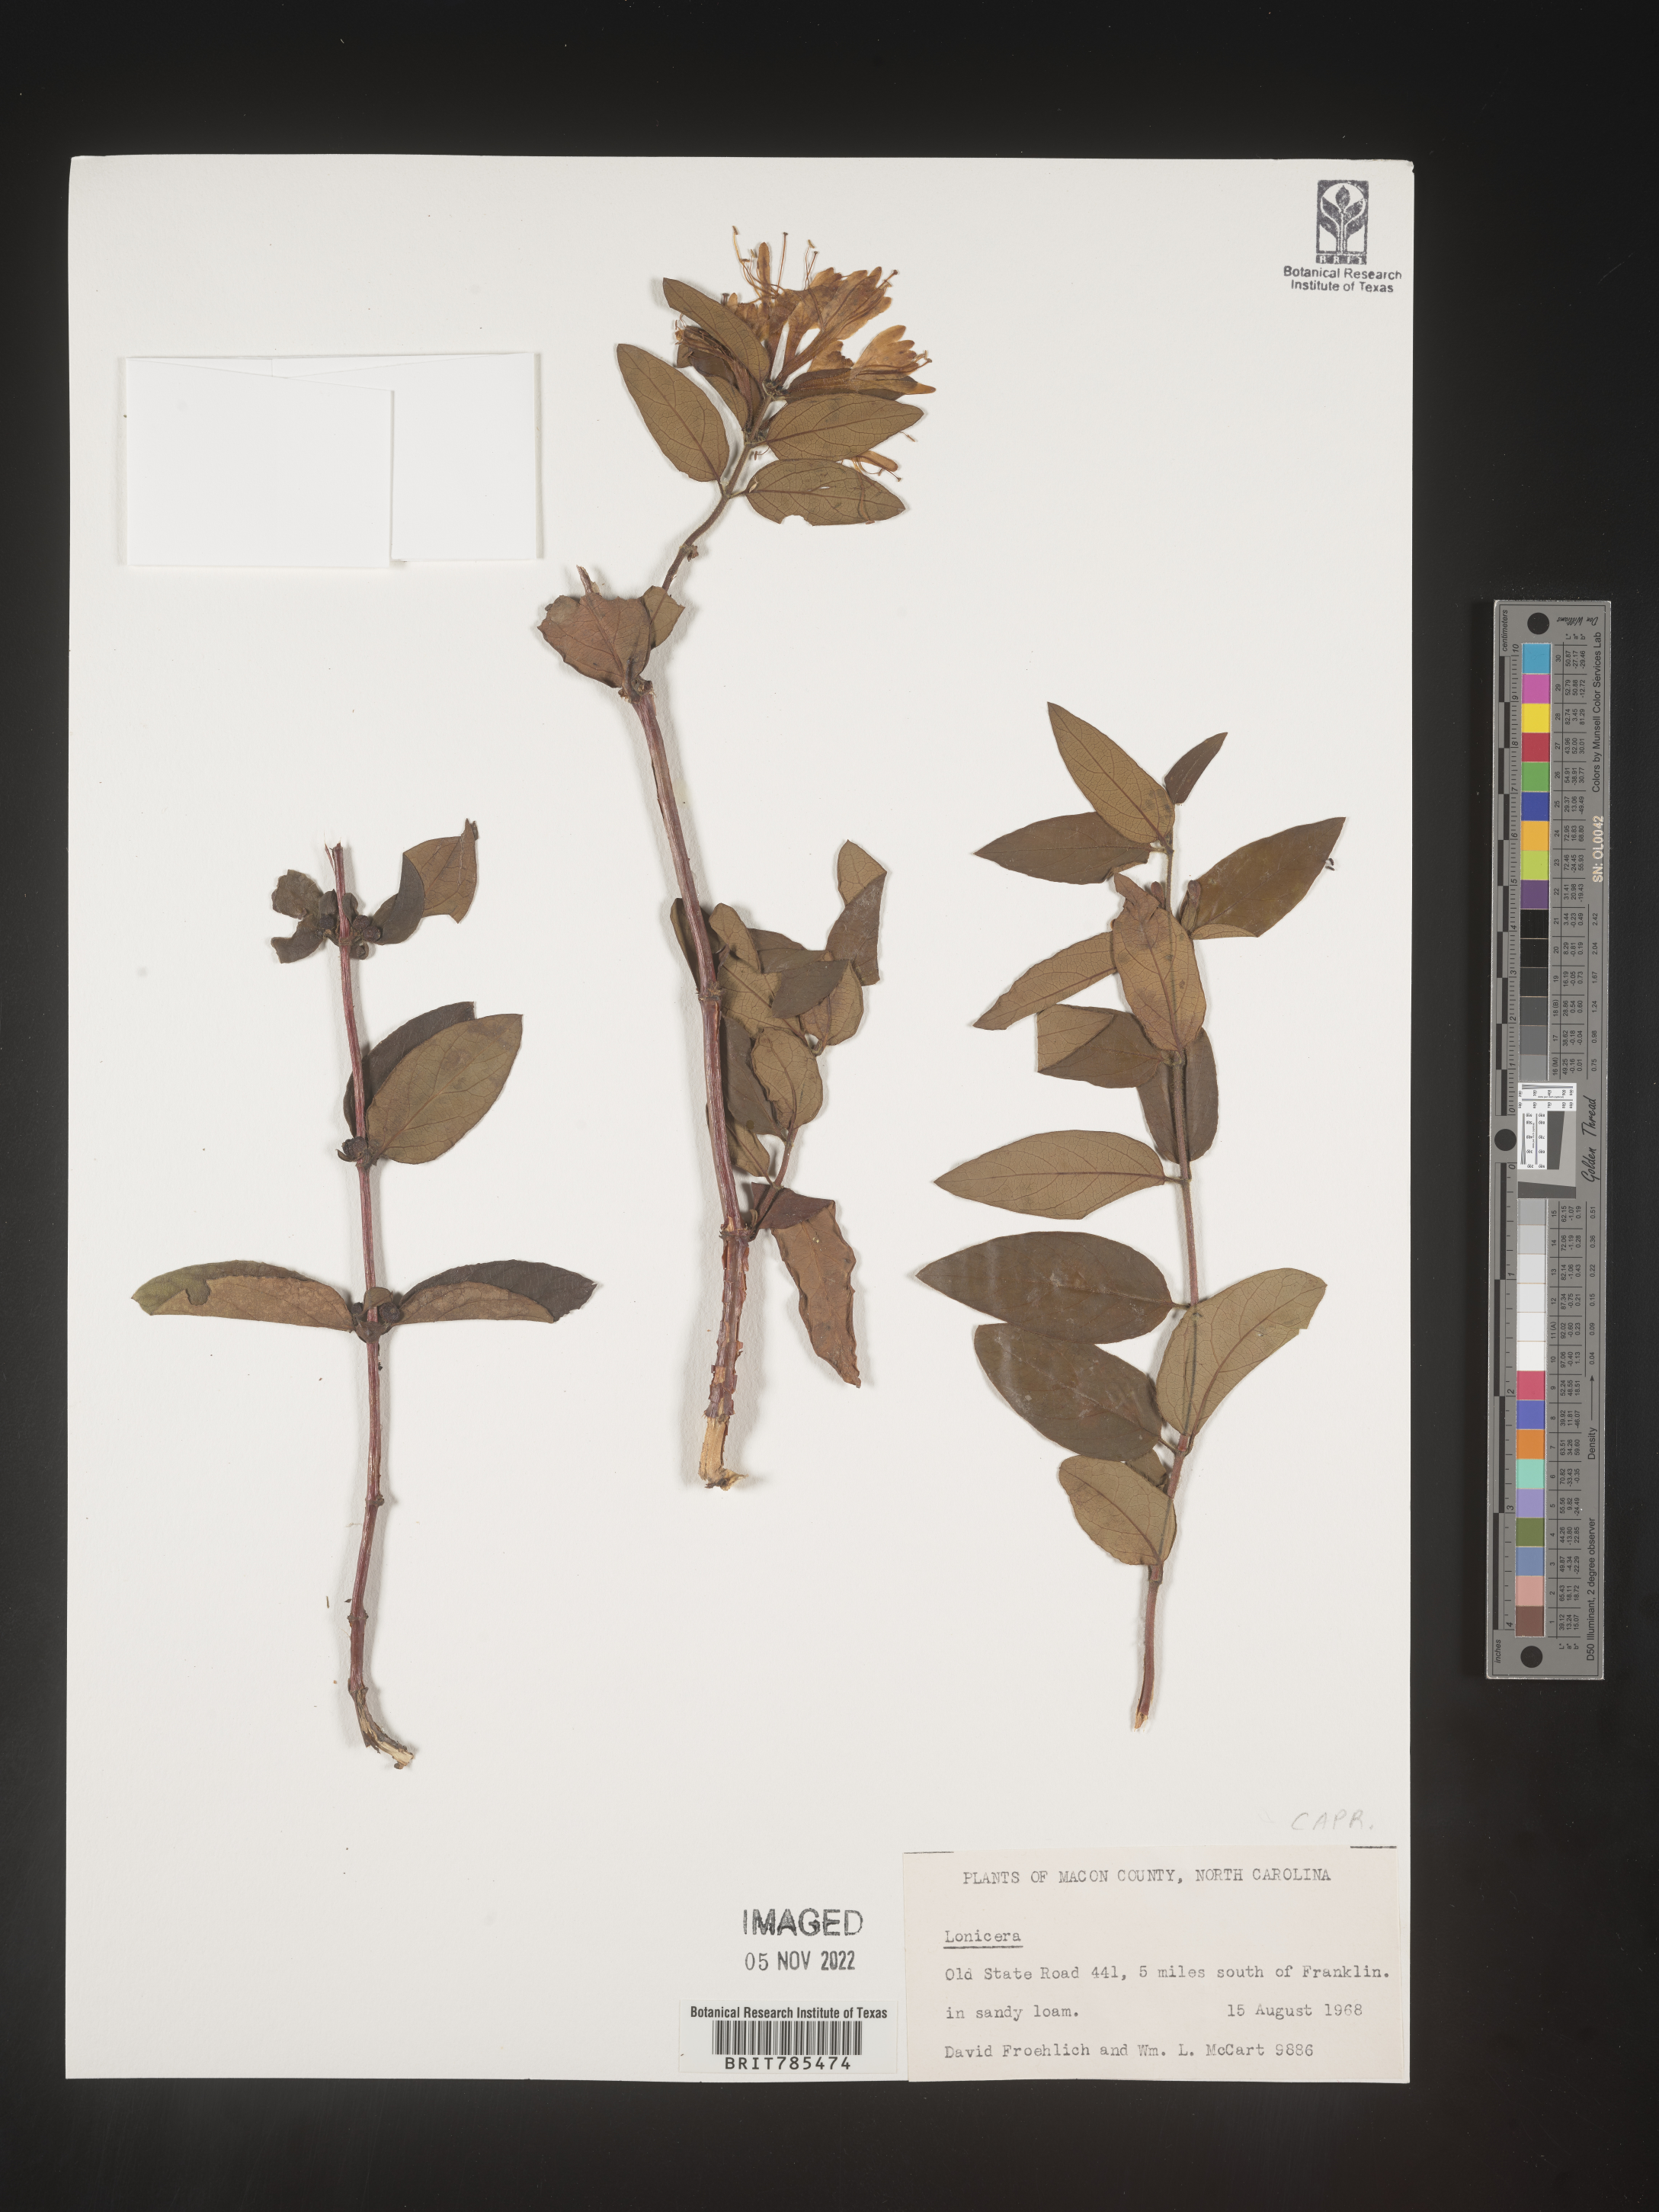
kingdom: Plantae
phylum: Tracheophyta
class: Magnoliopsida
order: Dipsacales
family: Caprifoliaceae
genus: Lonicera
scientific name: Lonicera
